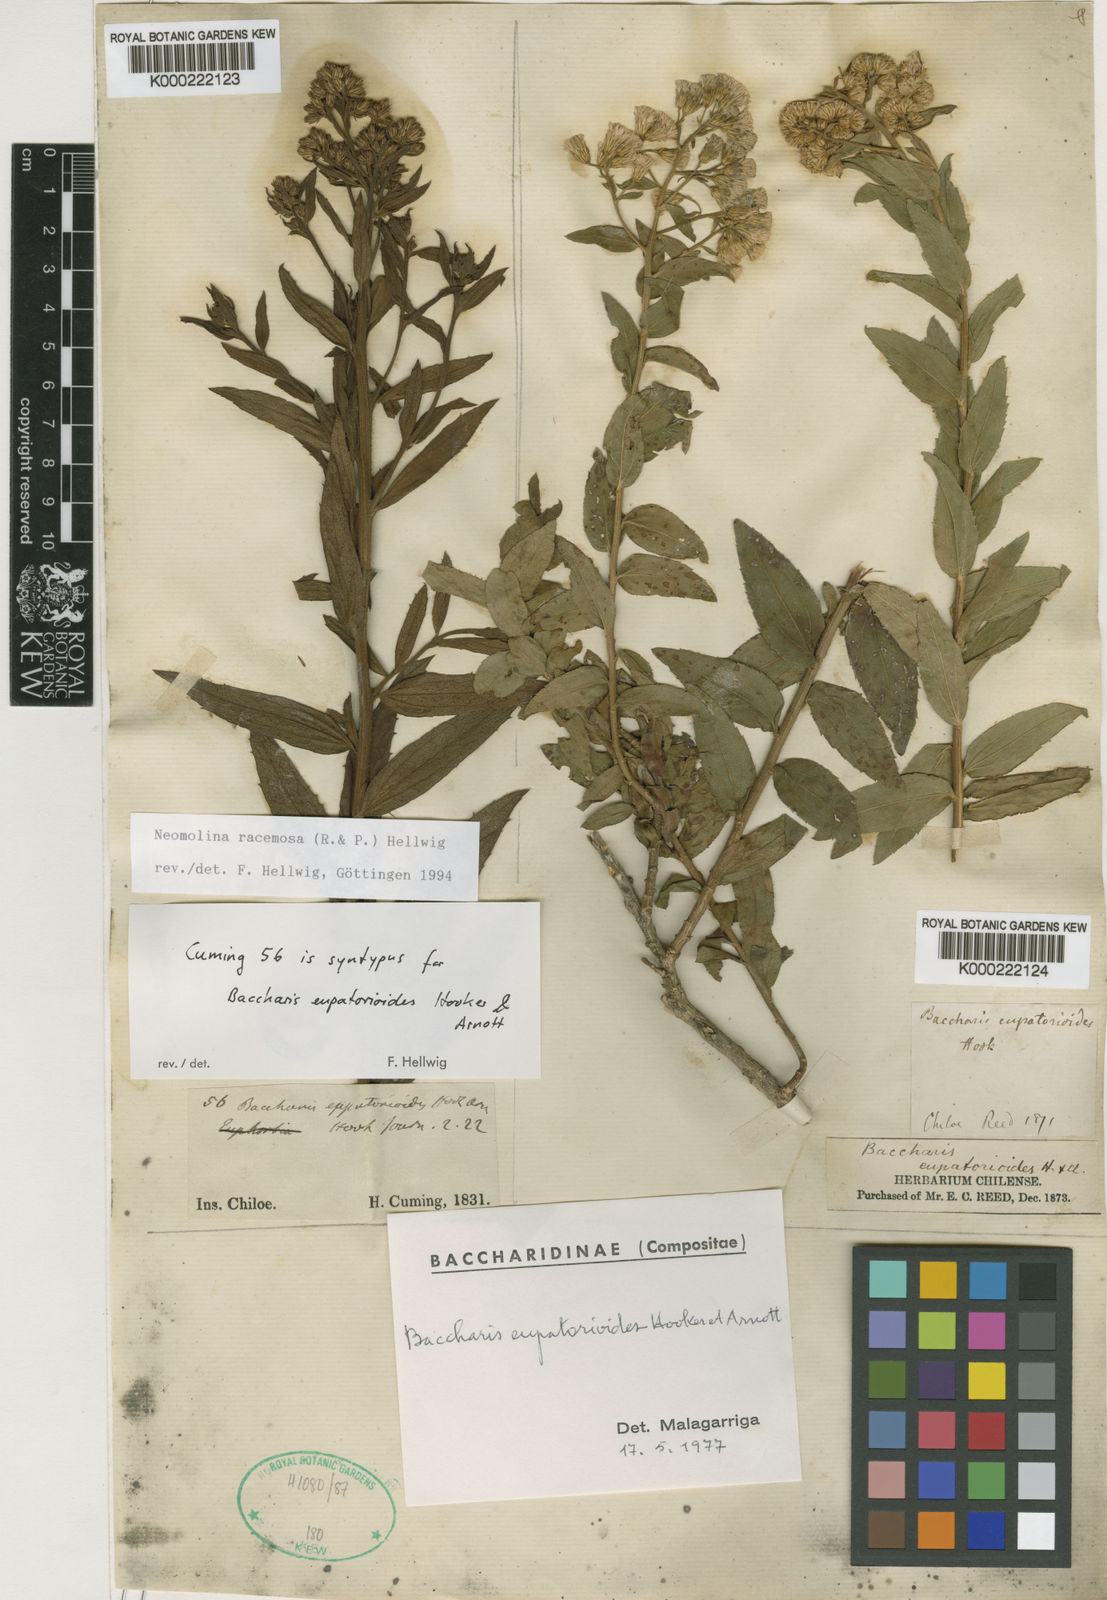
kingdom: Plantae
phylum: Tracheophyta
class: Magnoliopsida
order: Asterales
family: Asteraceae
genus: Baccharis
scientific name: Baccharis racemosa
